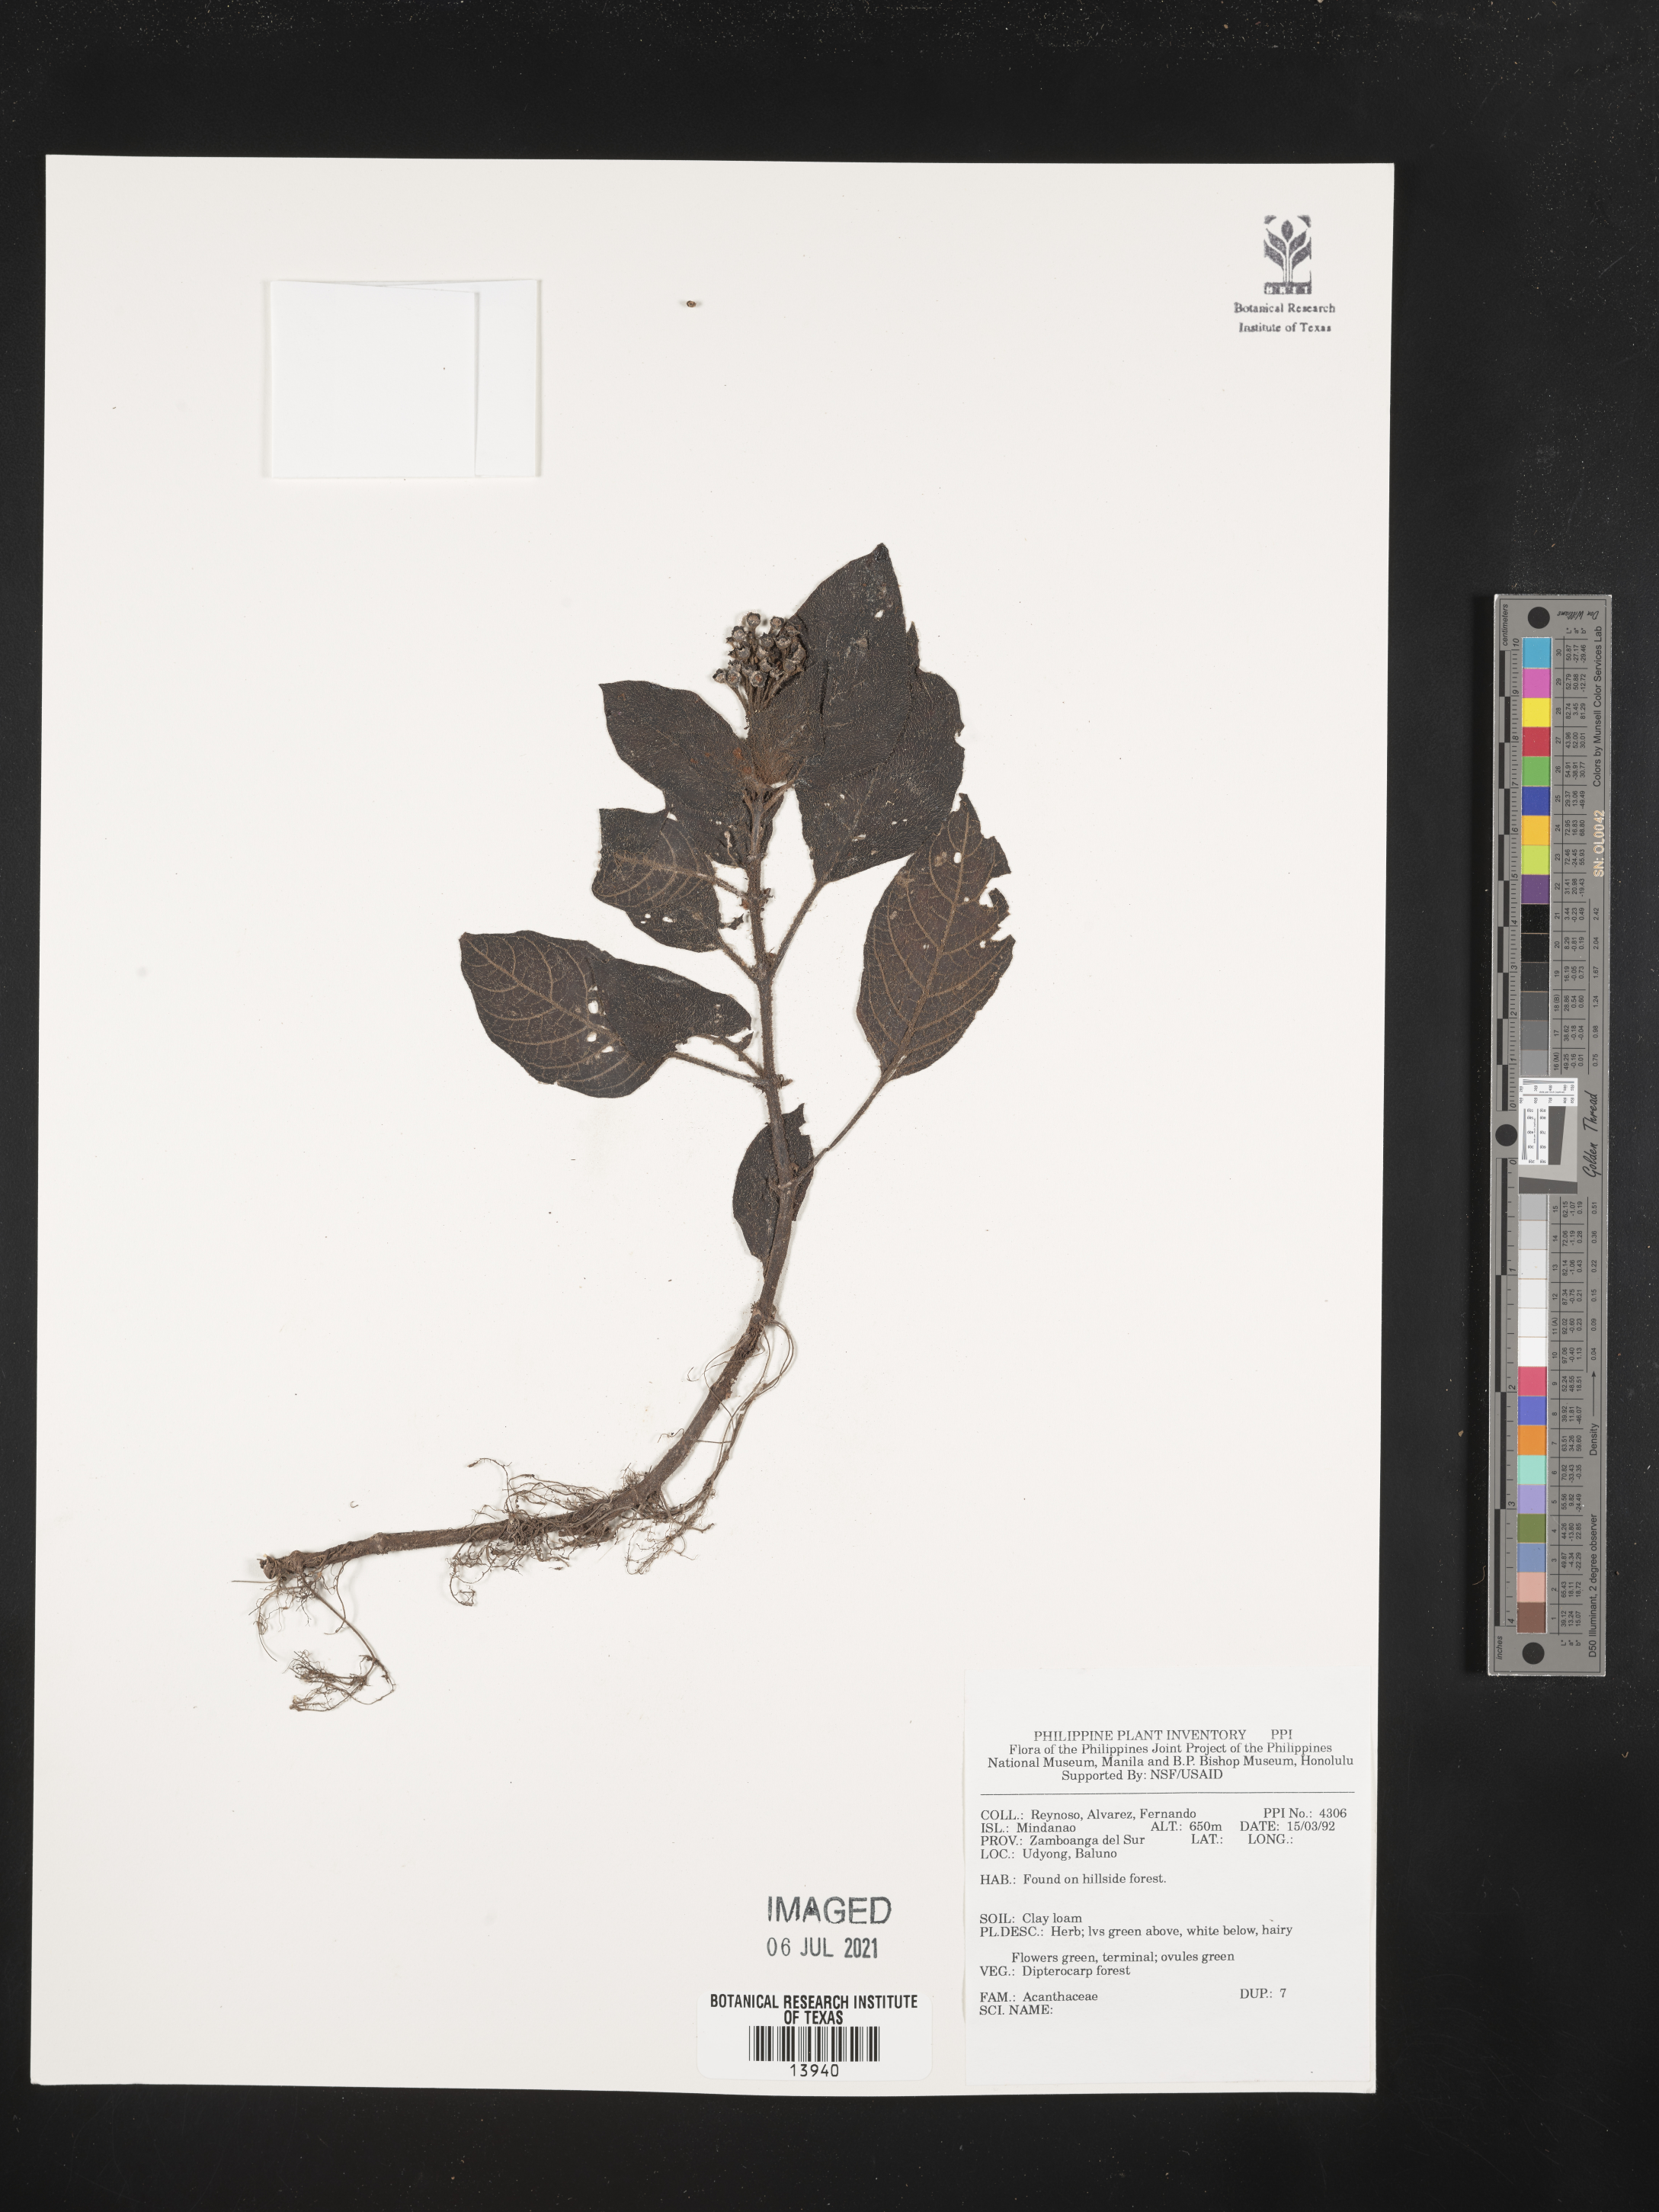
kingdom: Plantae
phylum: Tracheophyta
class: Magnoliopsida
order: Lamiales
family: Acanthaceae
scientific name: Acanthaceae
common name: Acanthaceae
